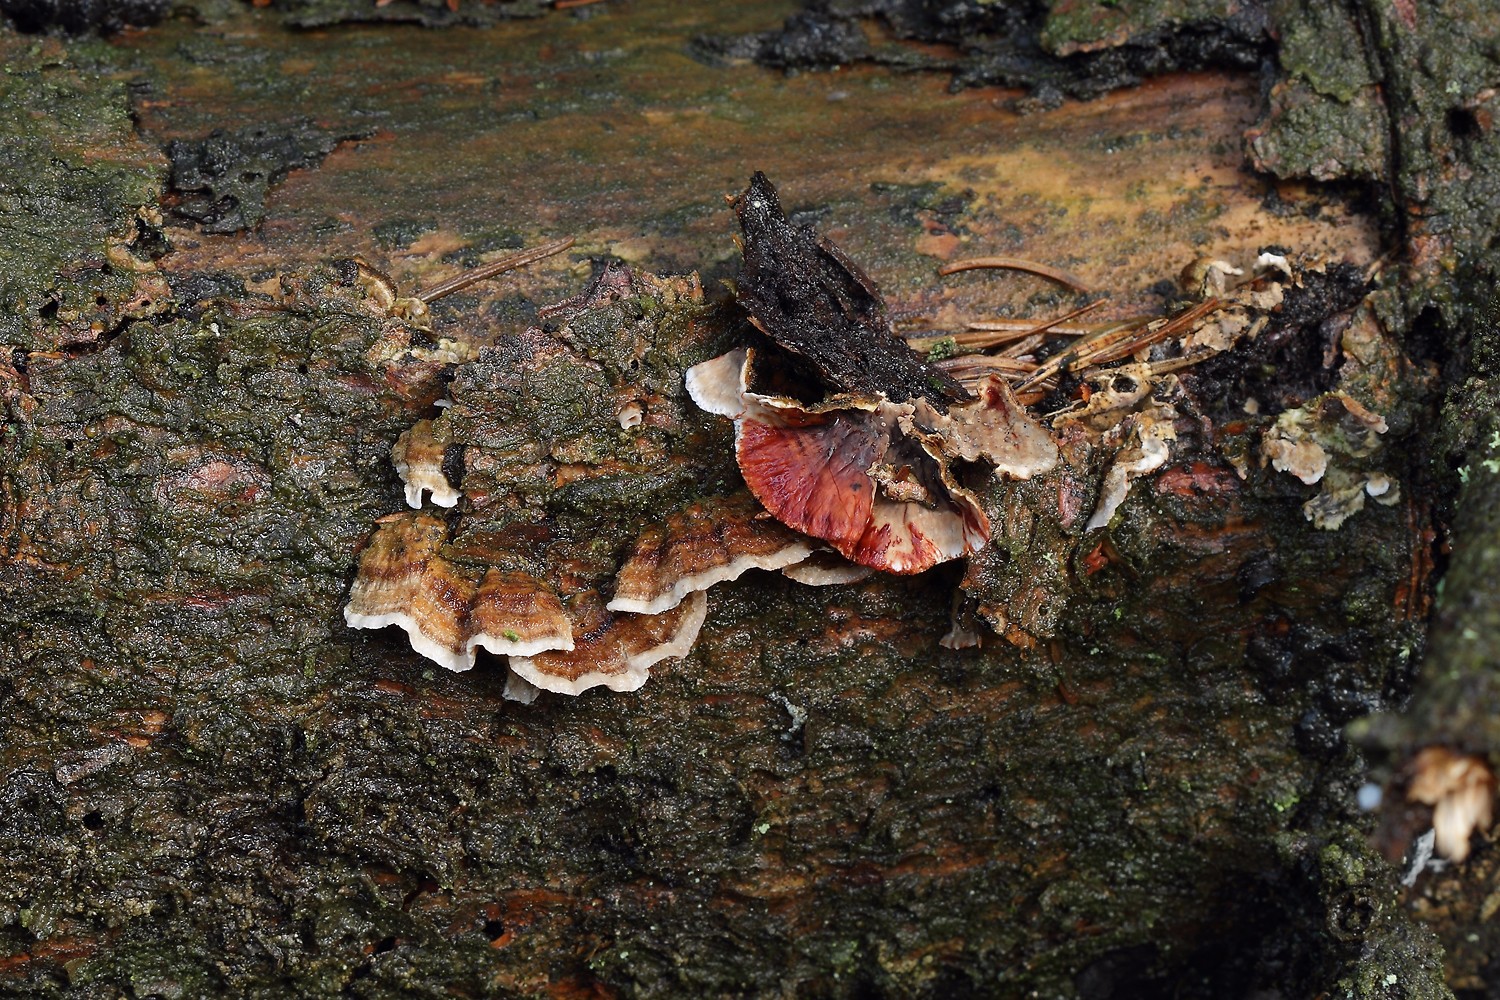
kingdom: Fungi
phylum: Basidiomycota
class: Agaricomycetes
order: Russulales
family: Stereaceae
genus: Stereum
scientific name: Stereum sanguinolentum
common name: blødende lædersvamp
